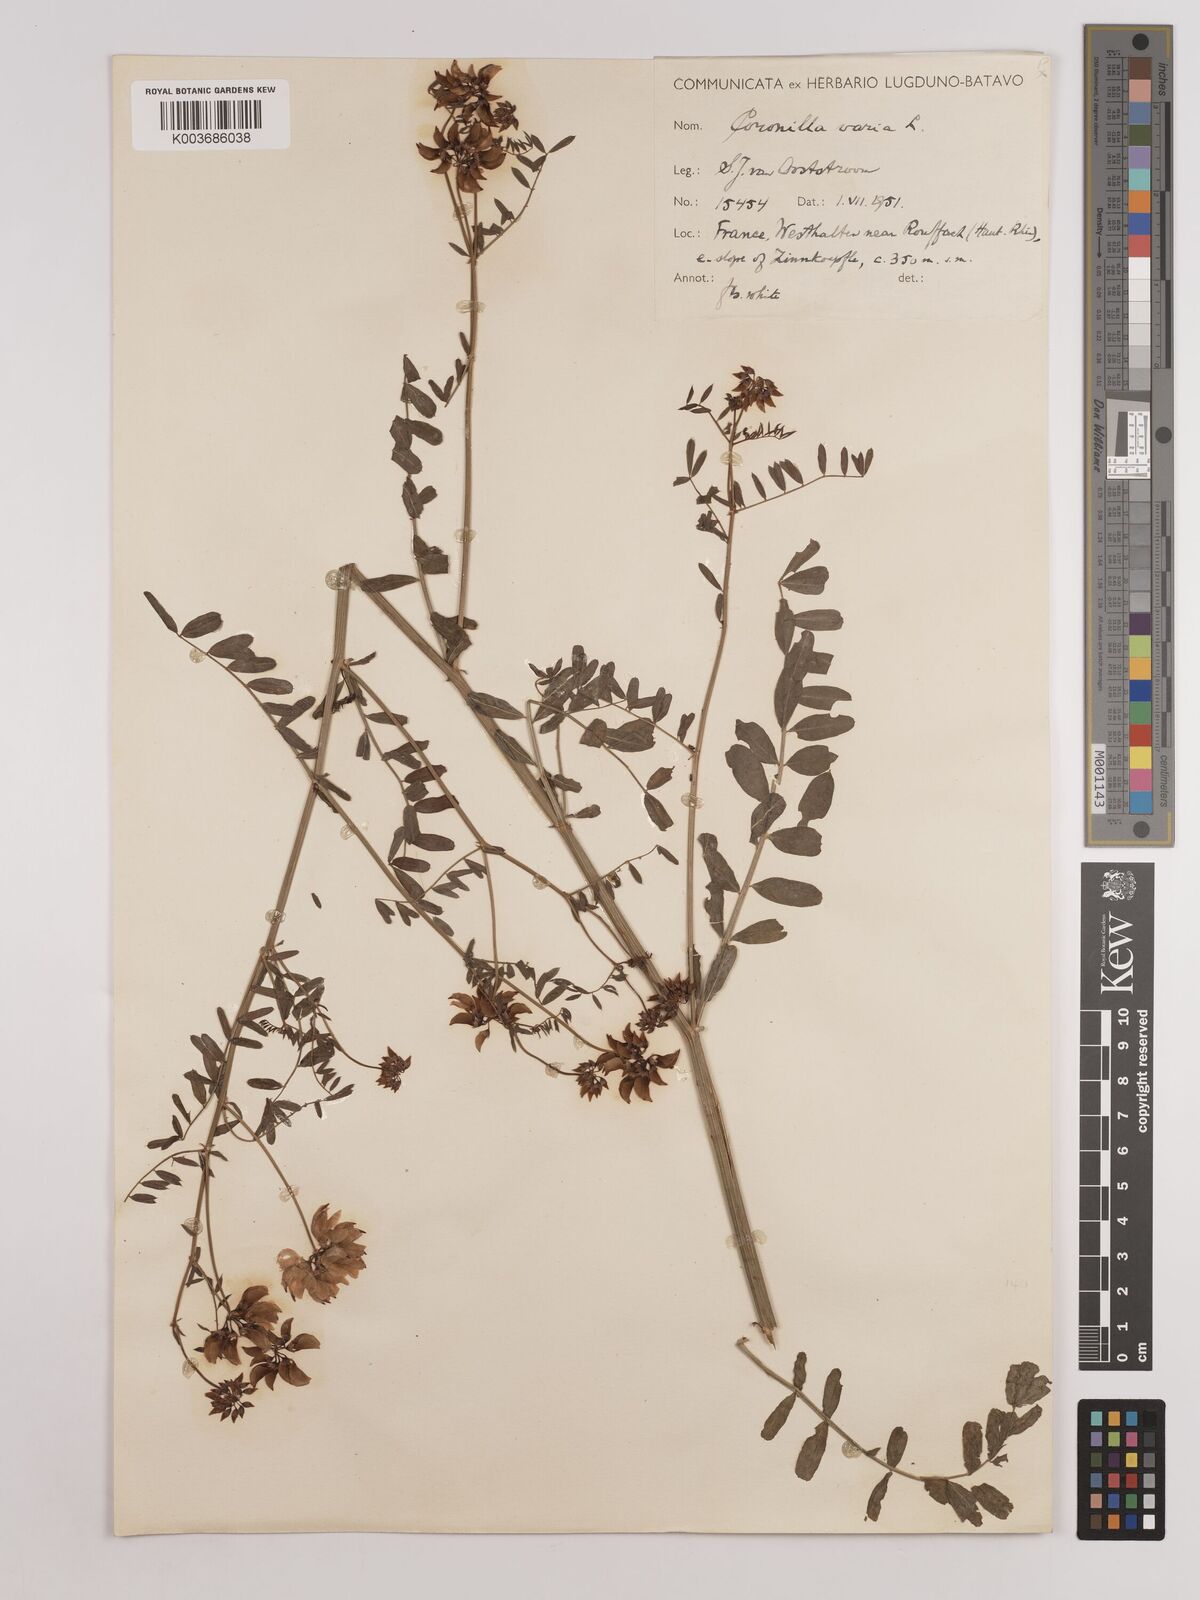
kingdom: Plantae
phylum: Tracheophyta
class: Magnoliopsida
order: Fabales
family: Fabaceae
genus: Coronilla
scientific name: Coronilla varia
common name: Crownvetch
